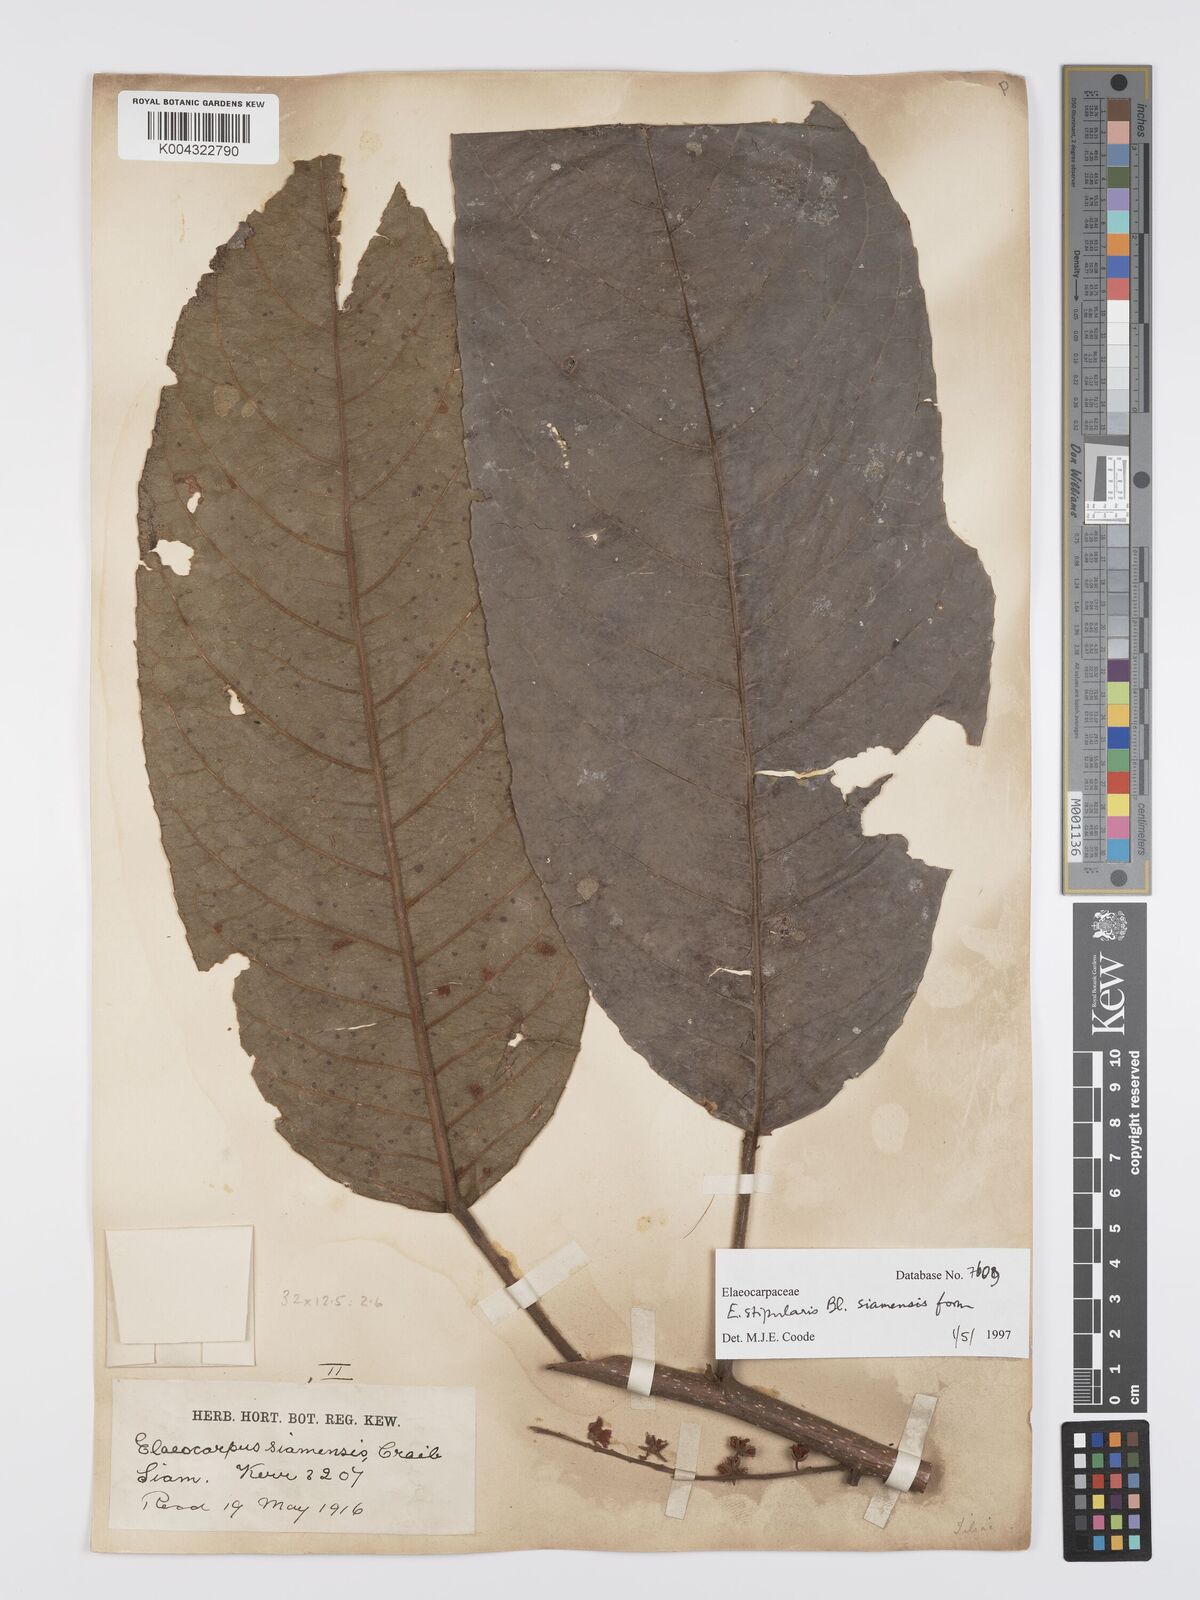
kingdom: Plantae
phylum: Tracheophyta
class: Magnoliopsida
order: Oxalidales
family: Elaeocarpaceae
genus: Elaeocarpus
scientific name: Elaeocarpus stipularis
